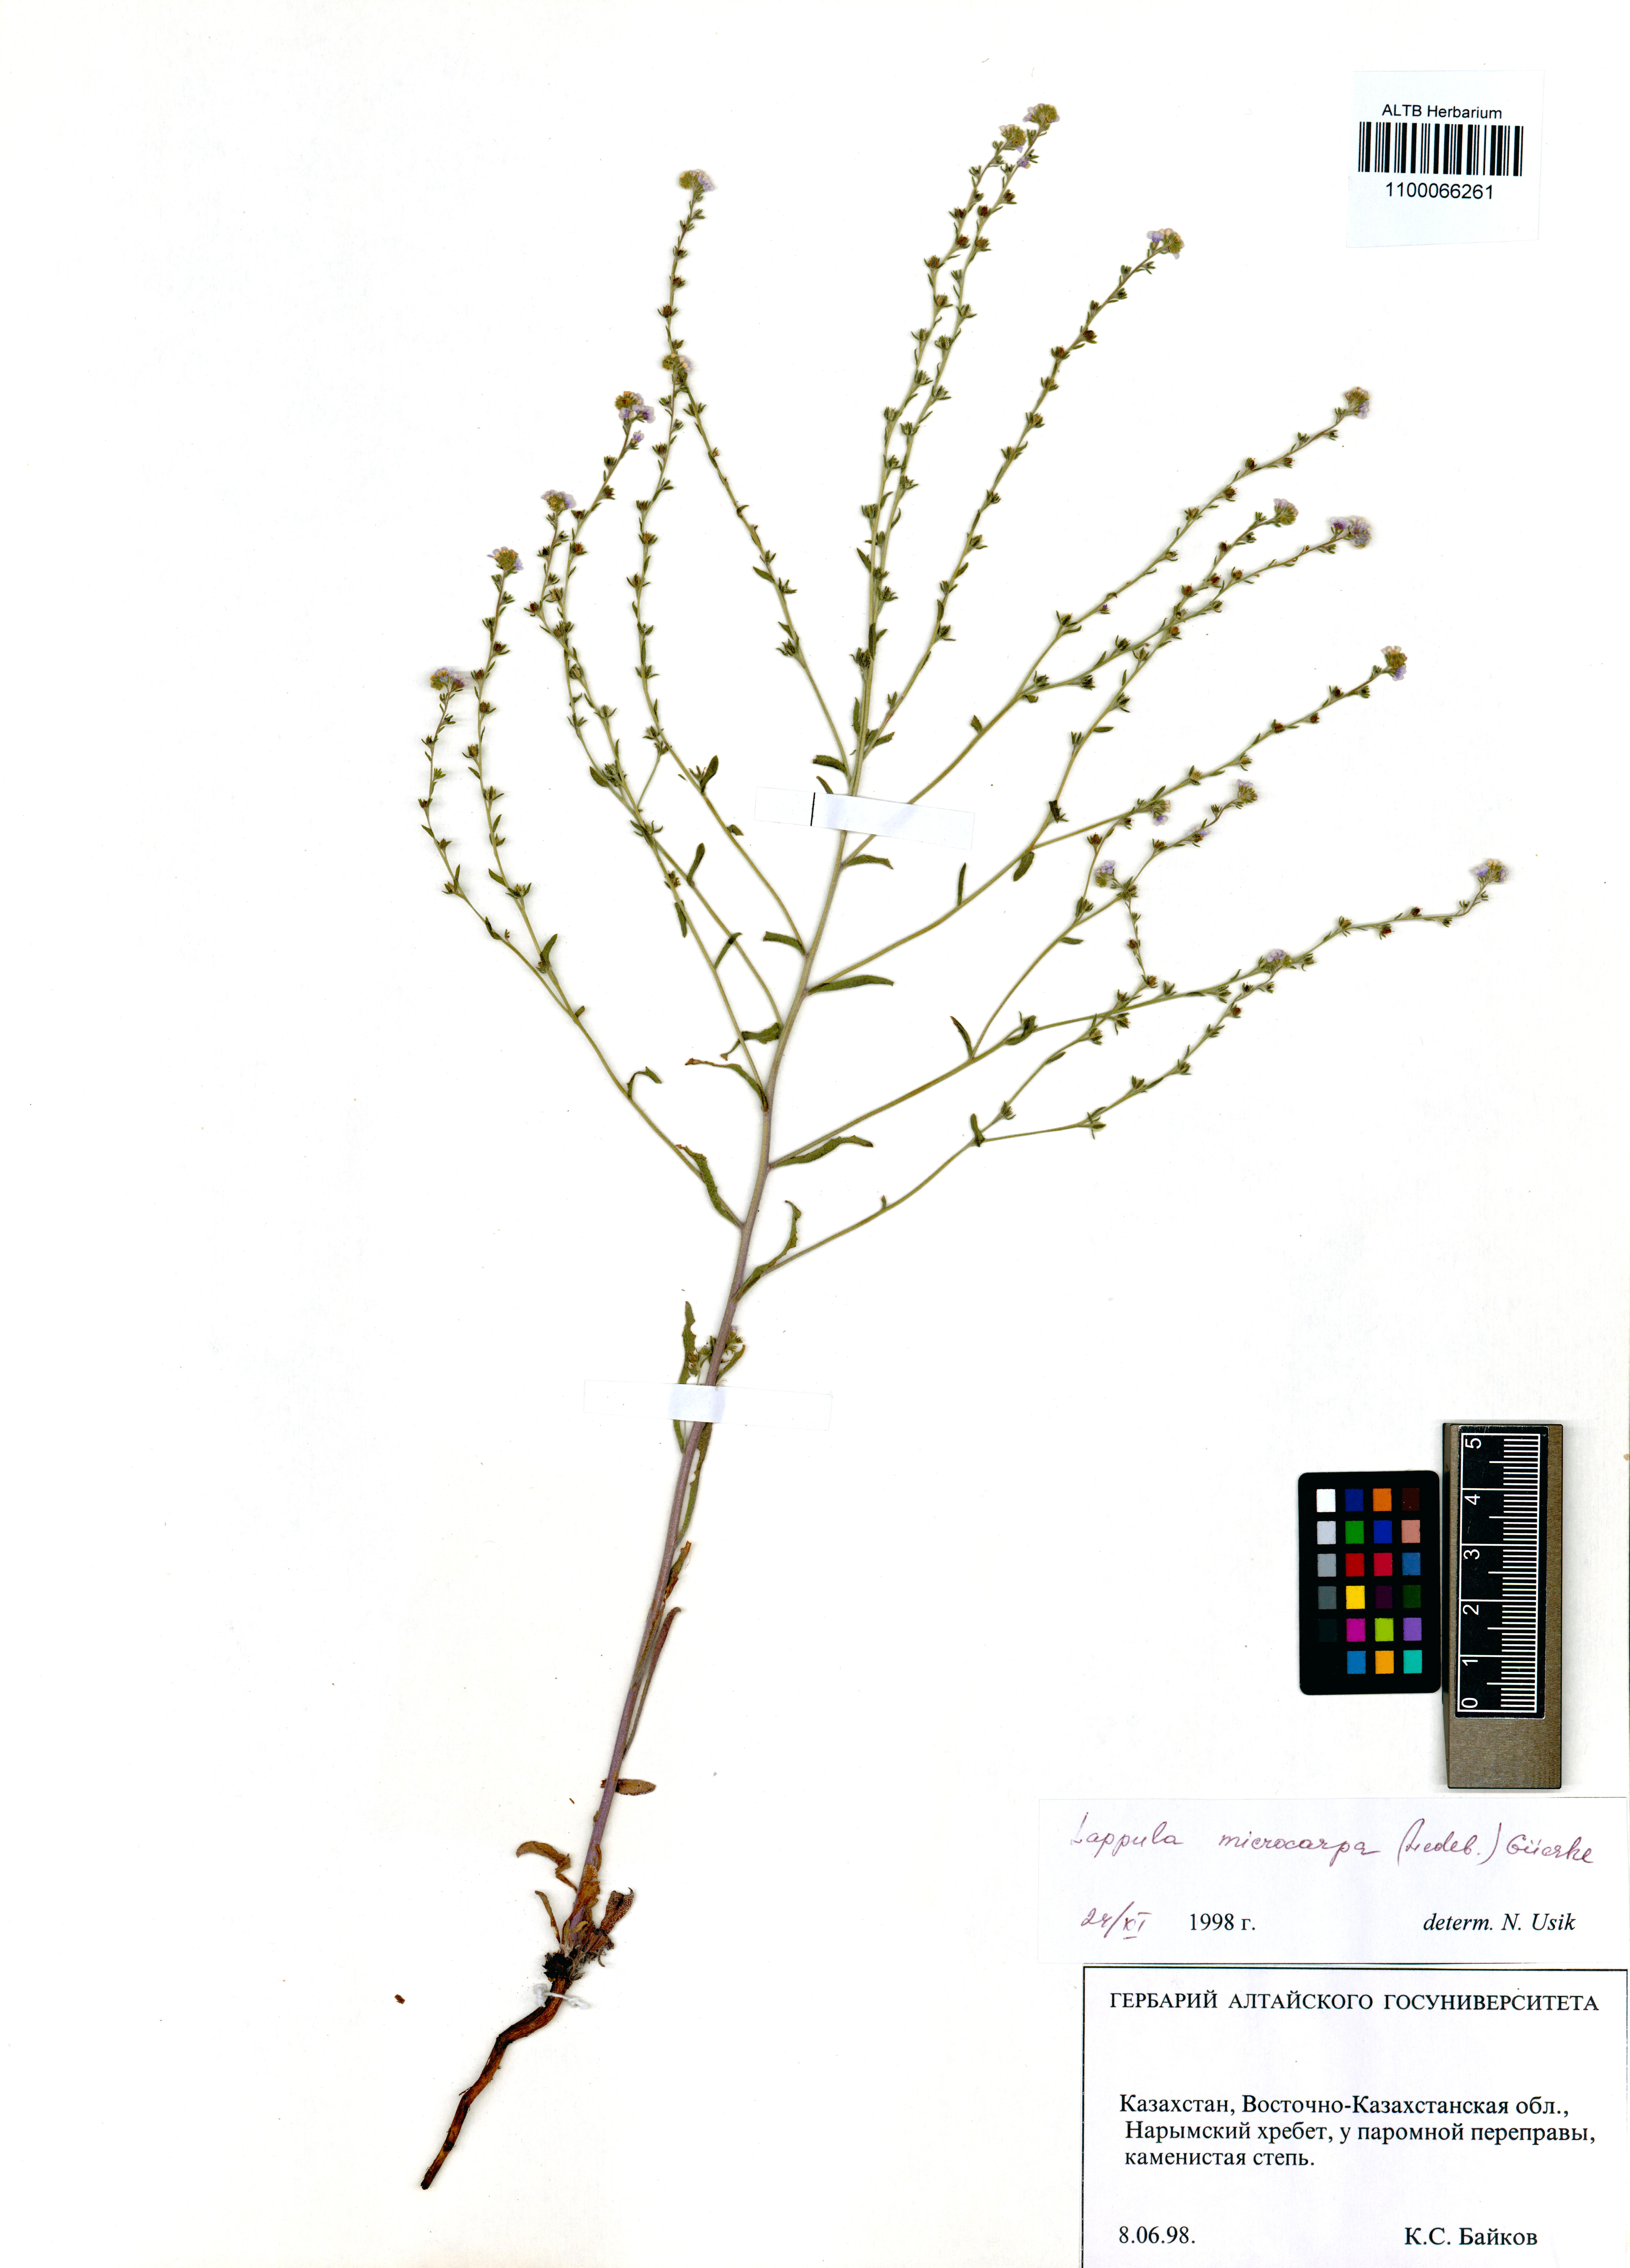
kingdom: Plantae
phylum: Tracheophyta
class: Magnoliopsida
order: Boraginales
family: Boraginaceae
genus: Lappula
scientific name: Lappula microcarpa
